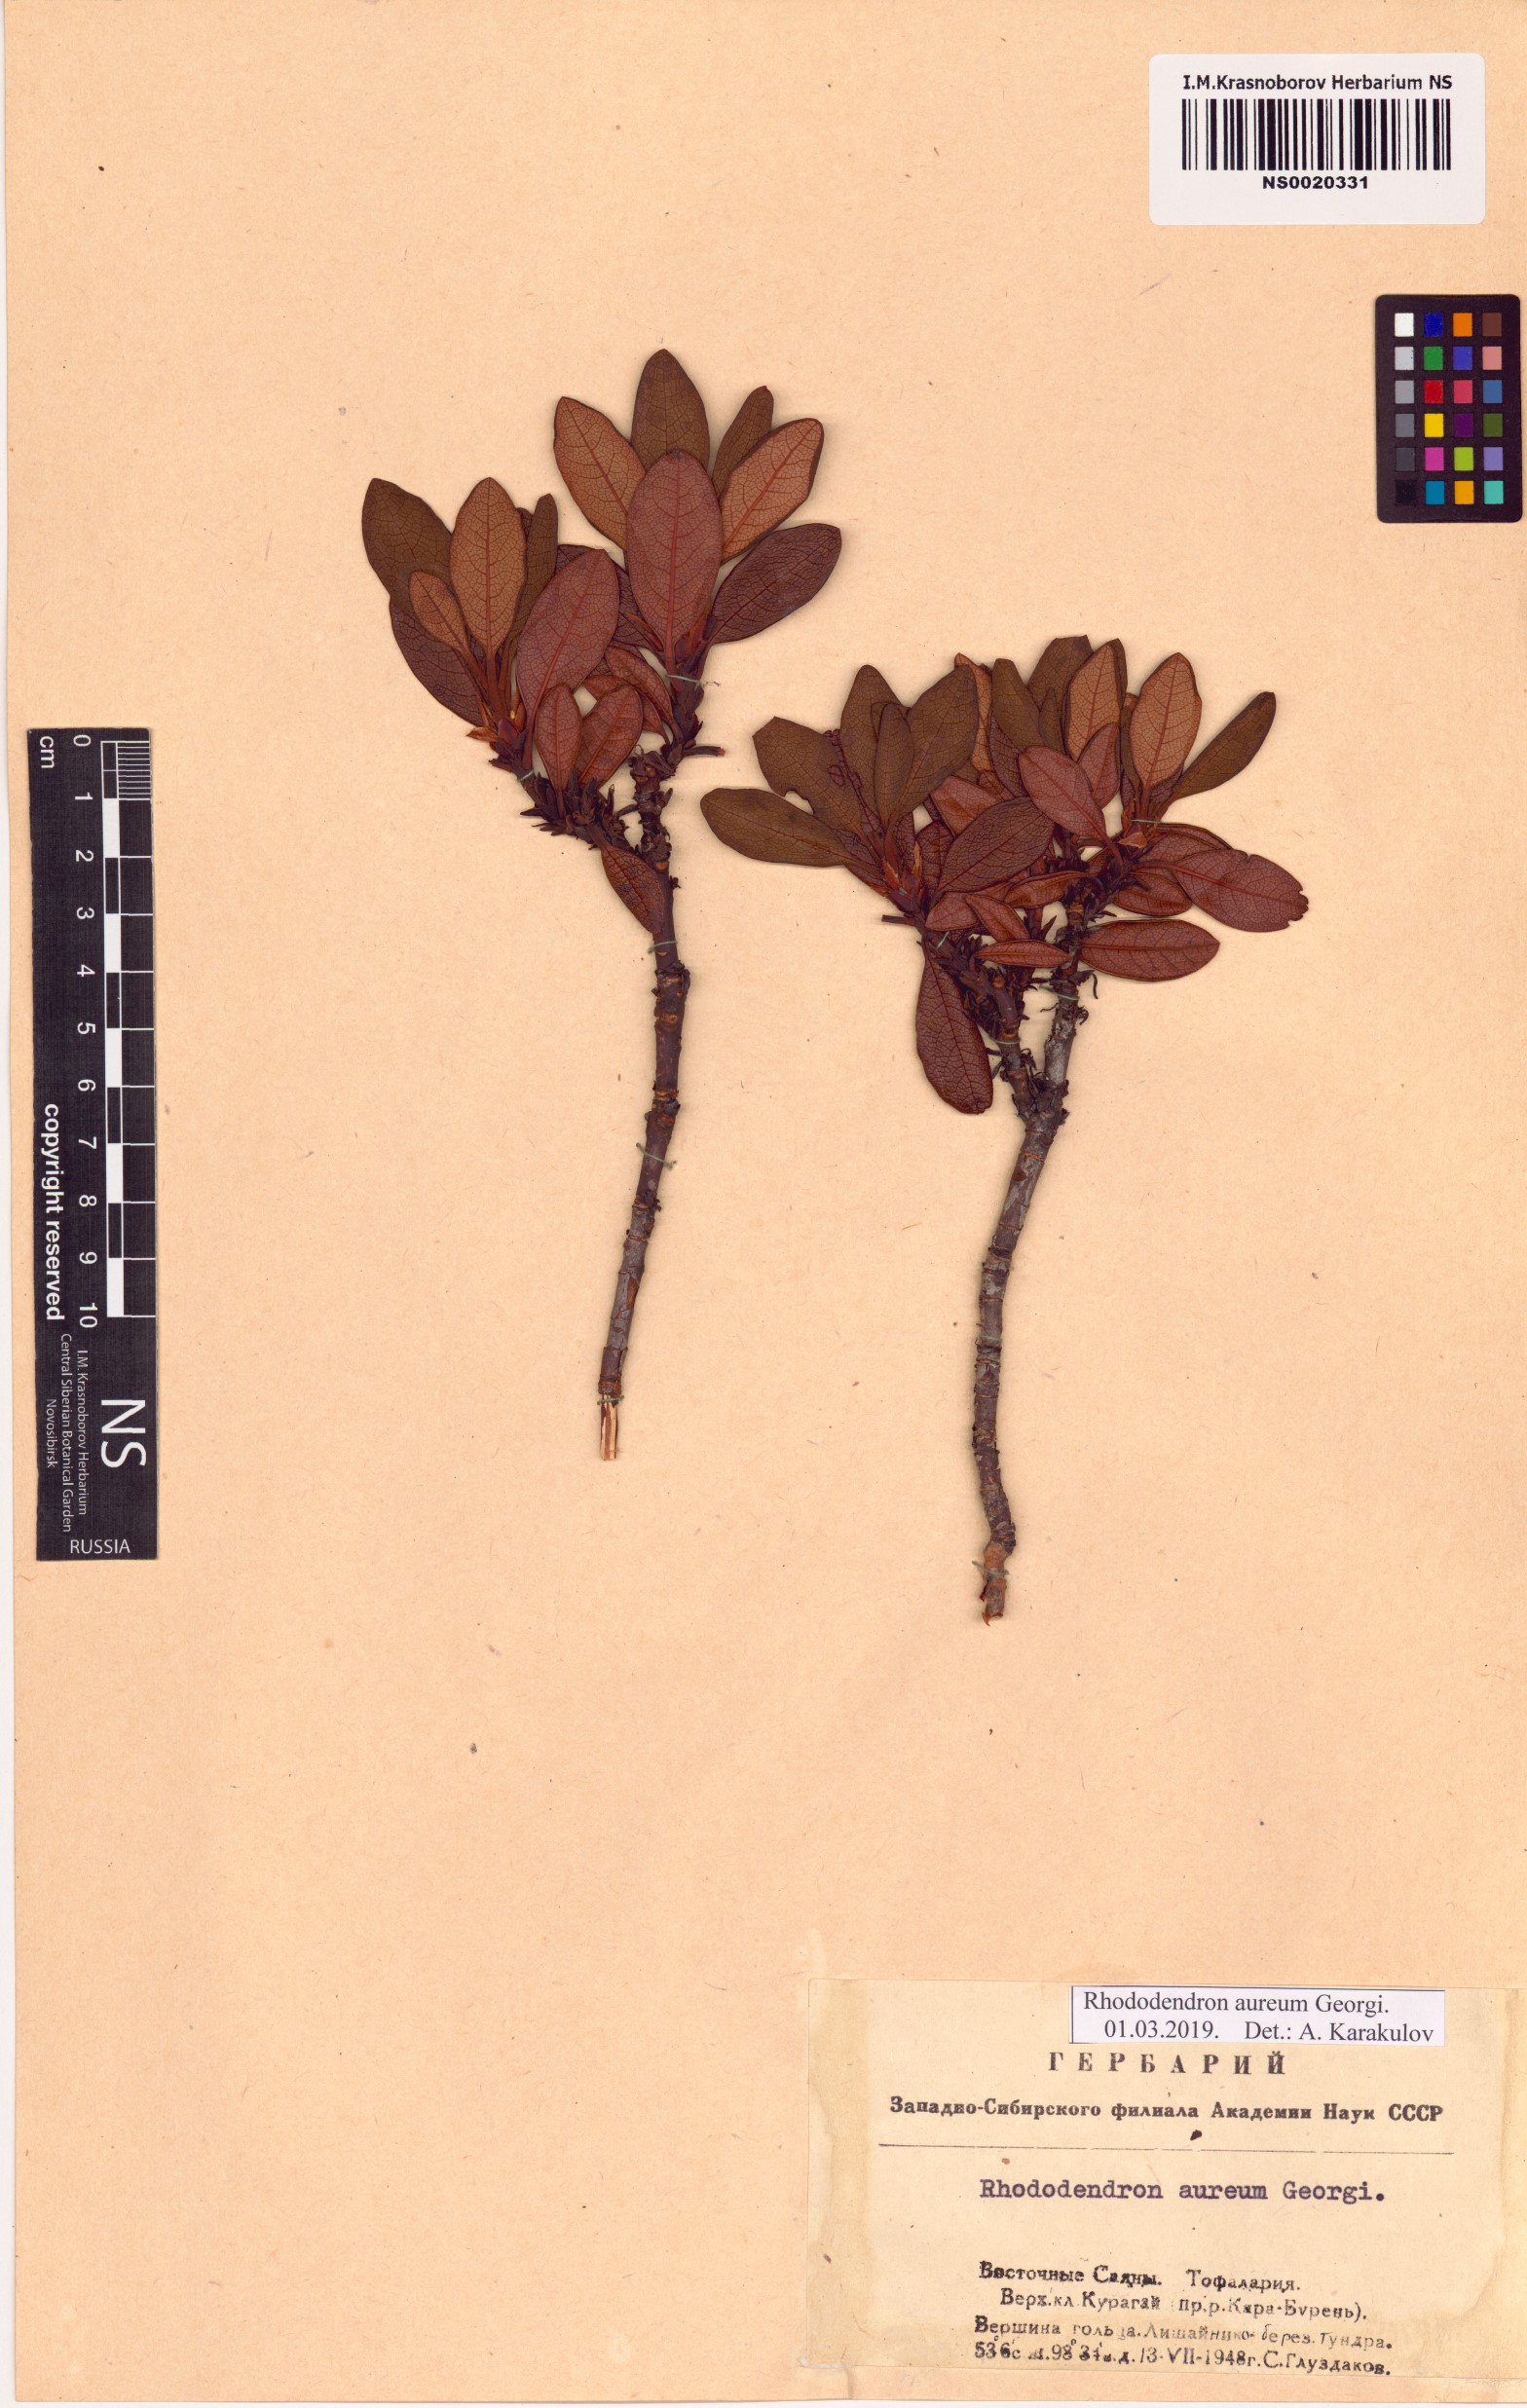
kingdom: Plantae
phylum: Tracheophyta
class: Magnoliopsida
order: Ericales
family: Ericaceae
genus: Rhododendron
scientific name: Rhododendron aureum
